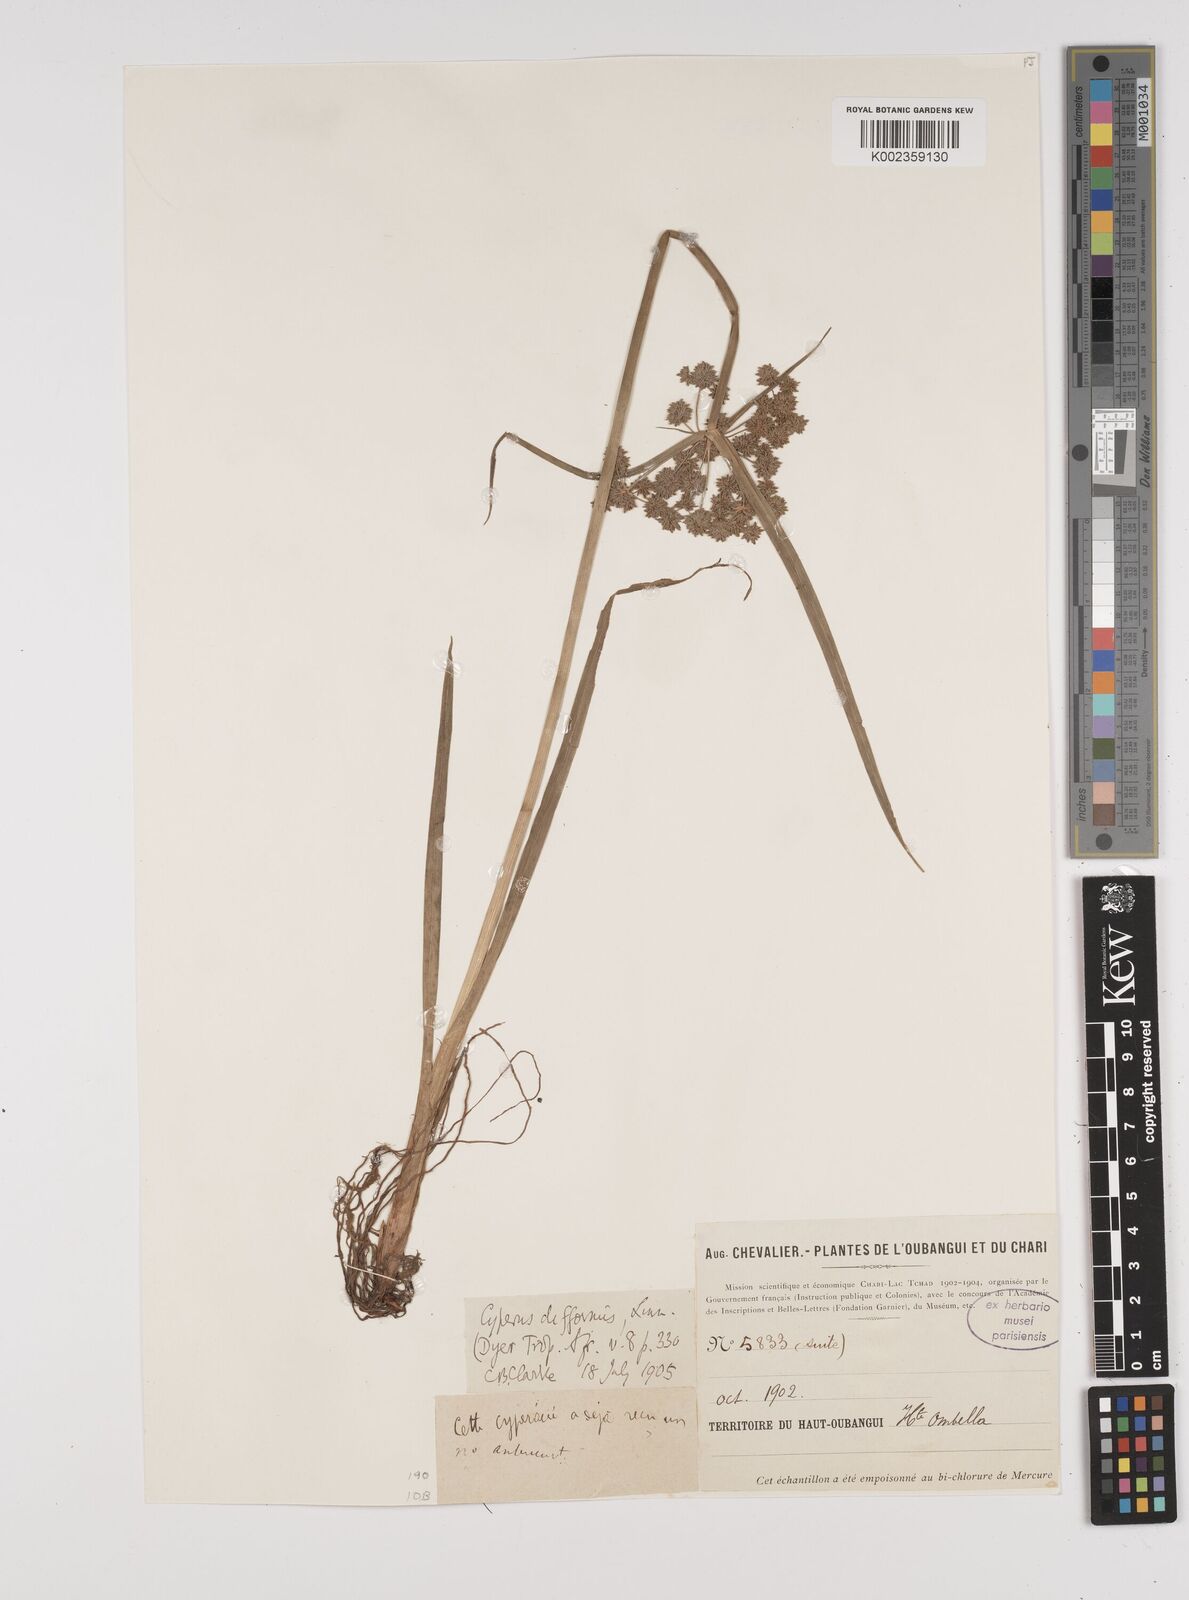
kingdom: Plantae
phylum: Tracheophyta
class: Liliopsida
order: Poales
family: Cyperaceae
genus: Cyperus
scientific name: Cyperus difformis
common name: Variable flatsedge
